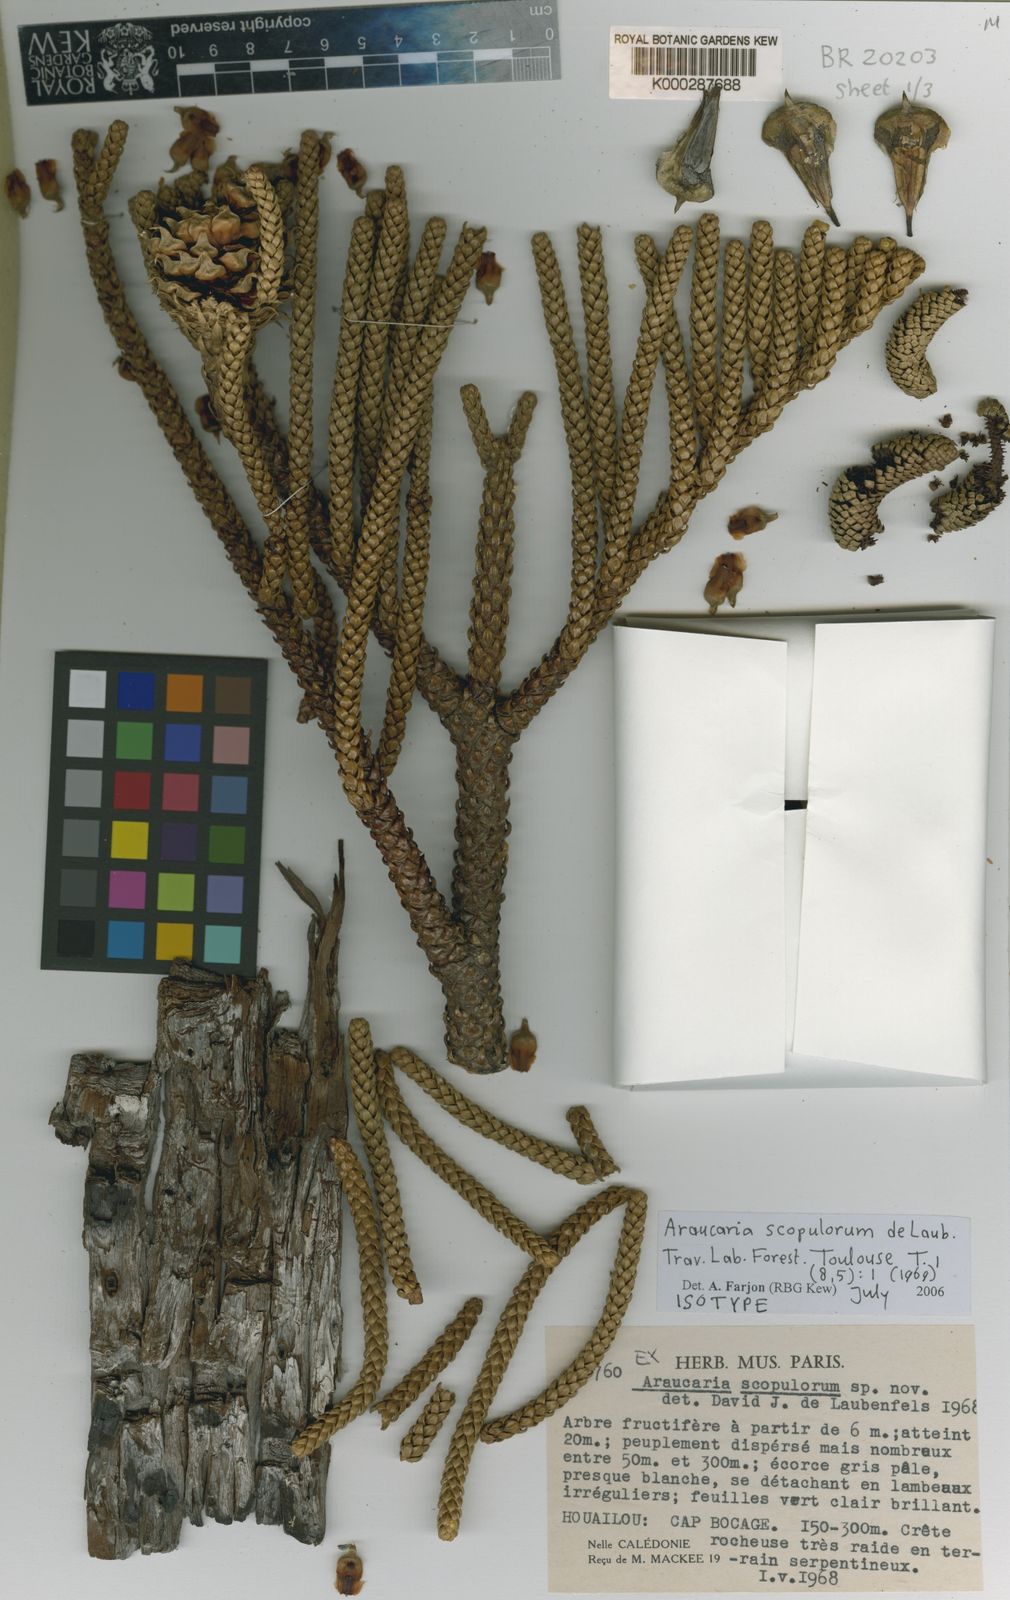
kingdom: Plantae
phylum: Tracheophyta
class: Pinopsida
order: Pinales
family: Araucariaceae
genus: Araucaria
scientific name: Araucaria scopulorum
